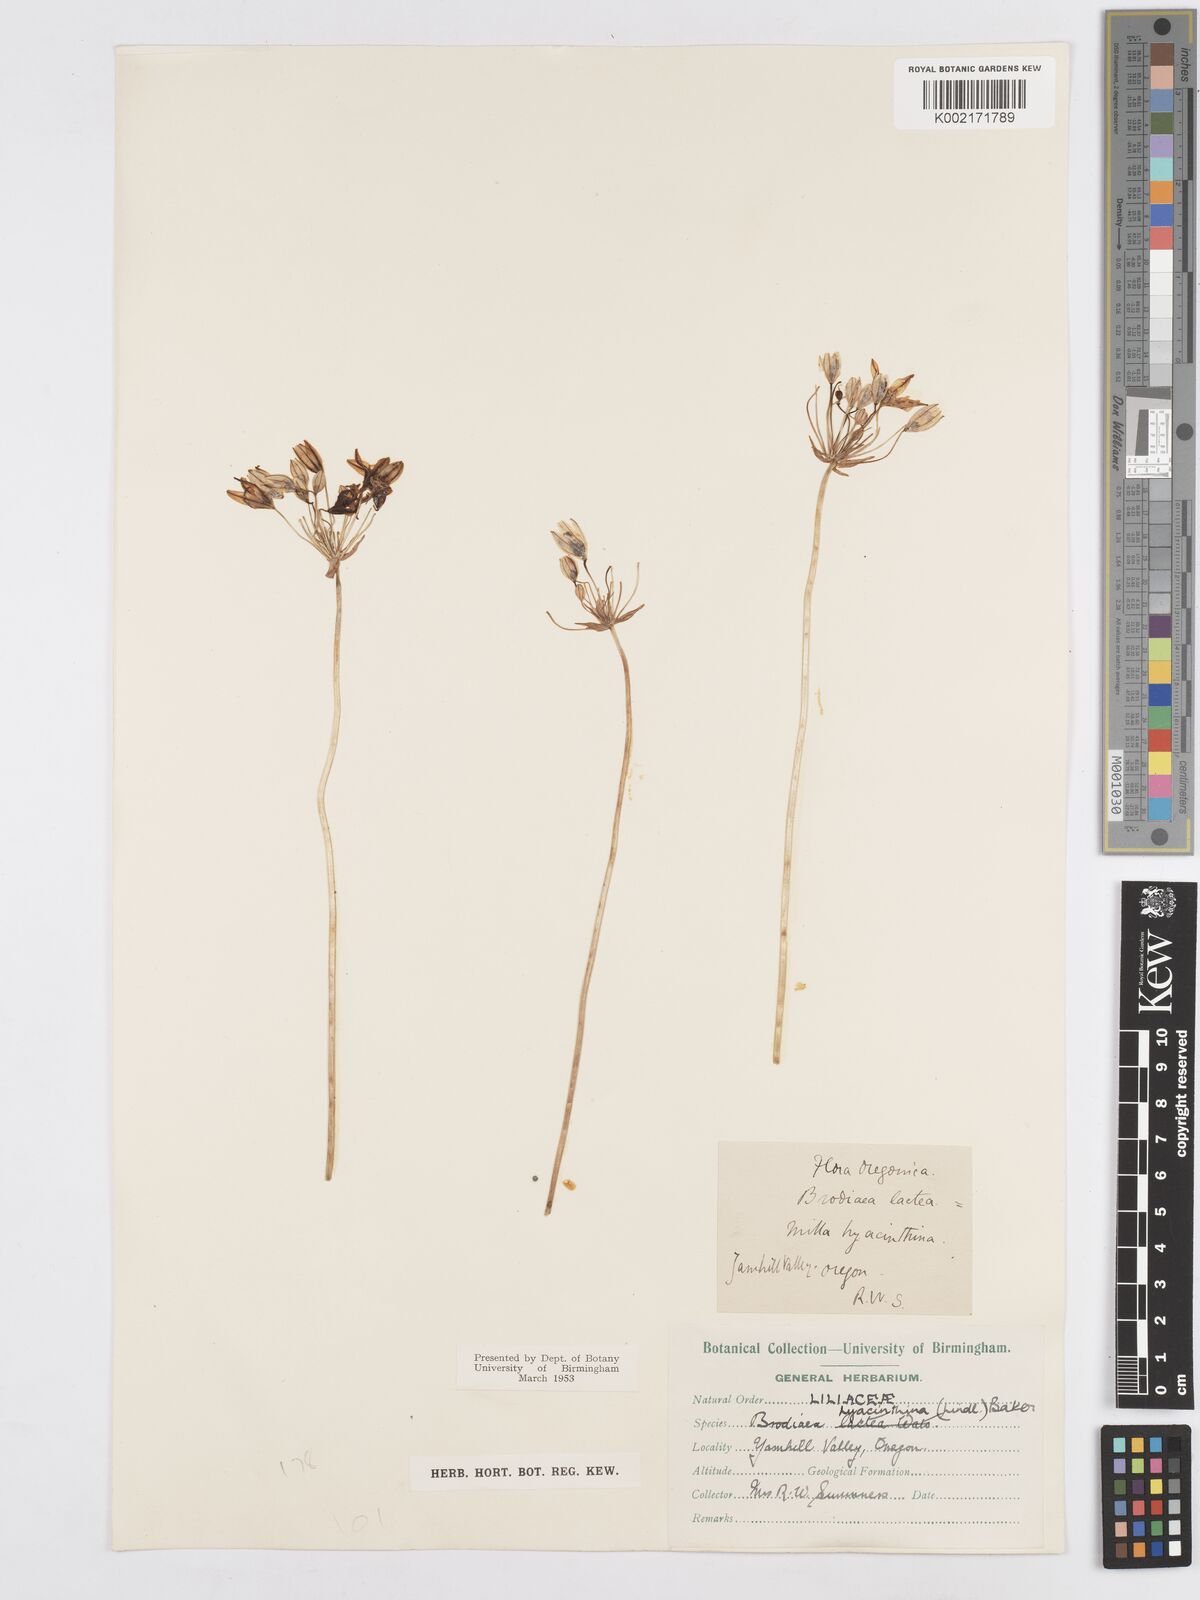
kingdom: Plantae
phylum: Tracheophyta
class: Liliopsida
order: Asparagales
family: Asparagaceae
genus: Triteleia
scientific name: Triteleia hyacinthina
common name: White brodiaea
